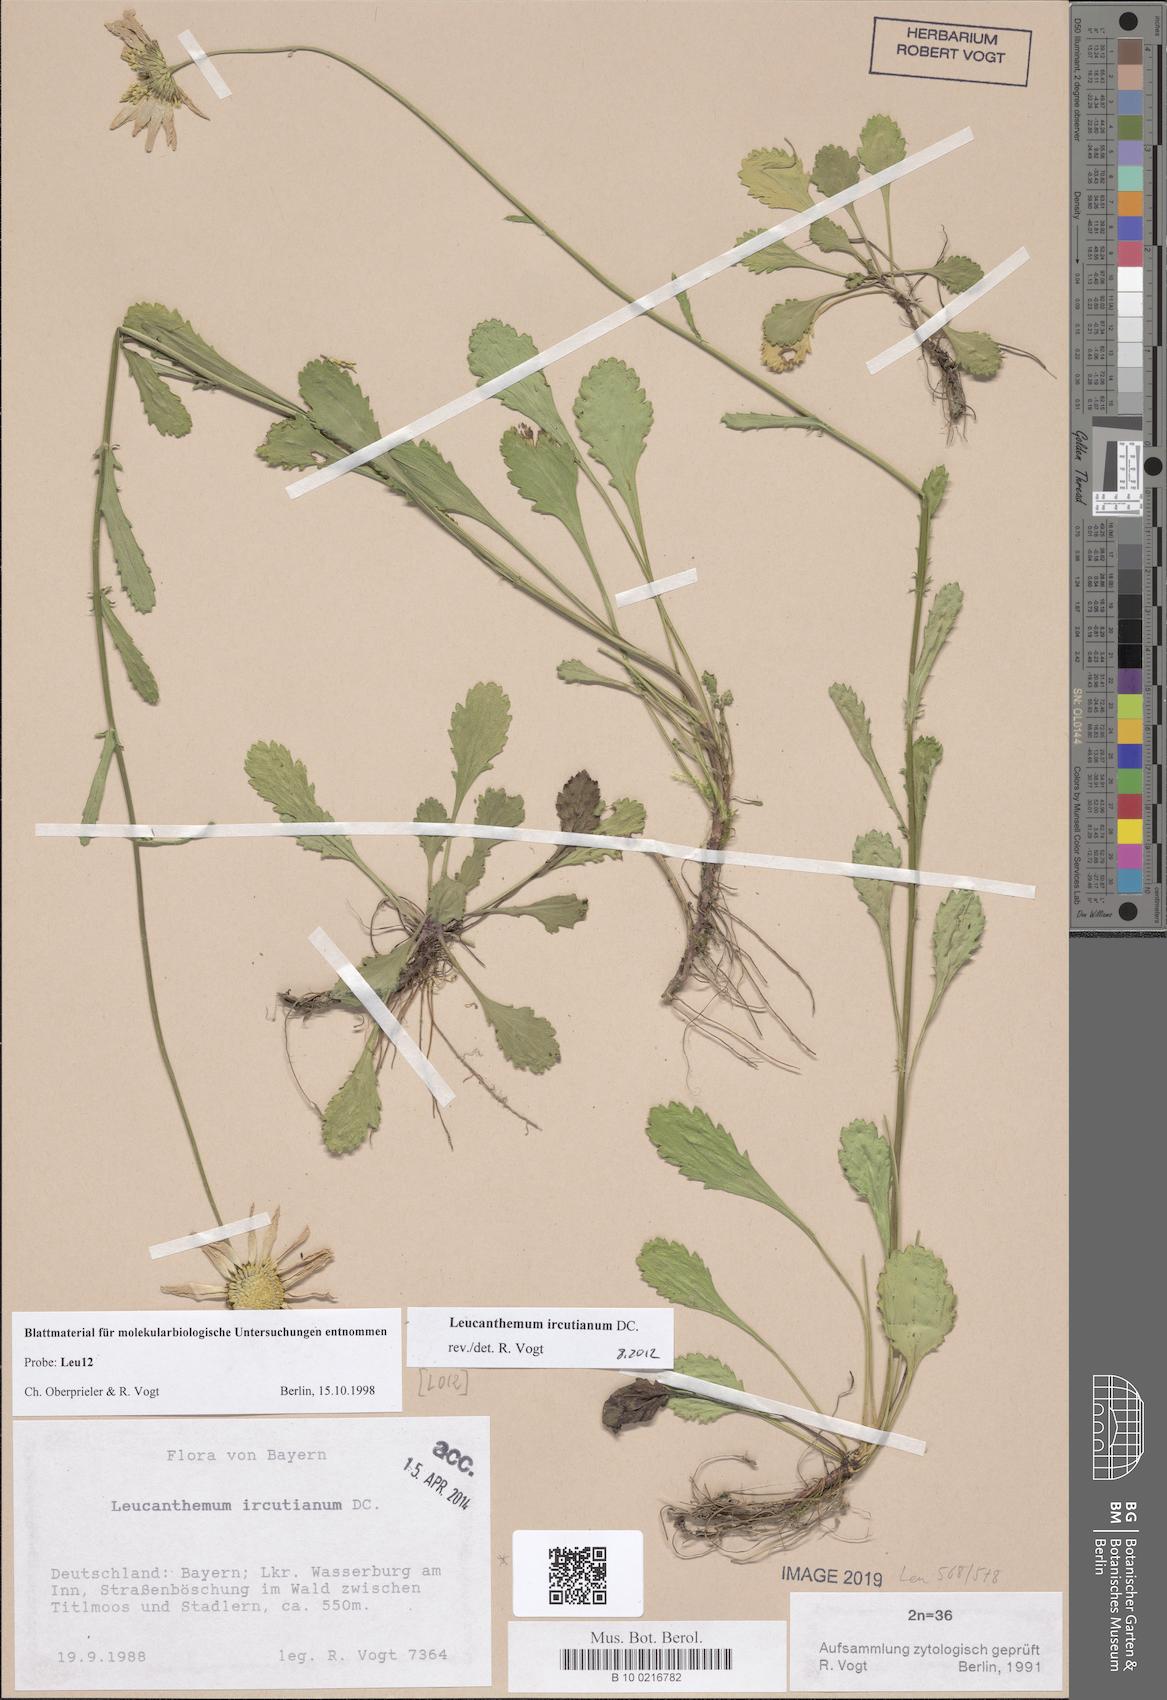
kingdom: Plantae
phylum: Tracheophyta
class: Magnoliopsida
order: Asterales
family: Asteraceae
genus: Leucanthemum
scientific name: Leucanthemum ircutianum
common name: Daisy
